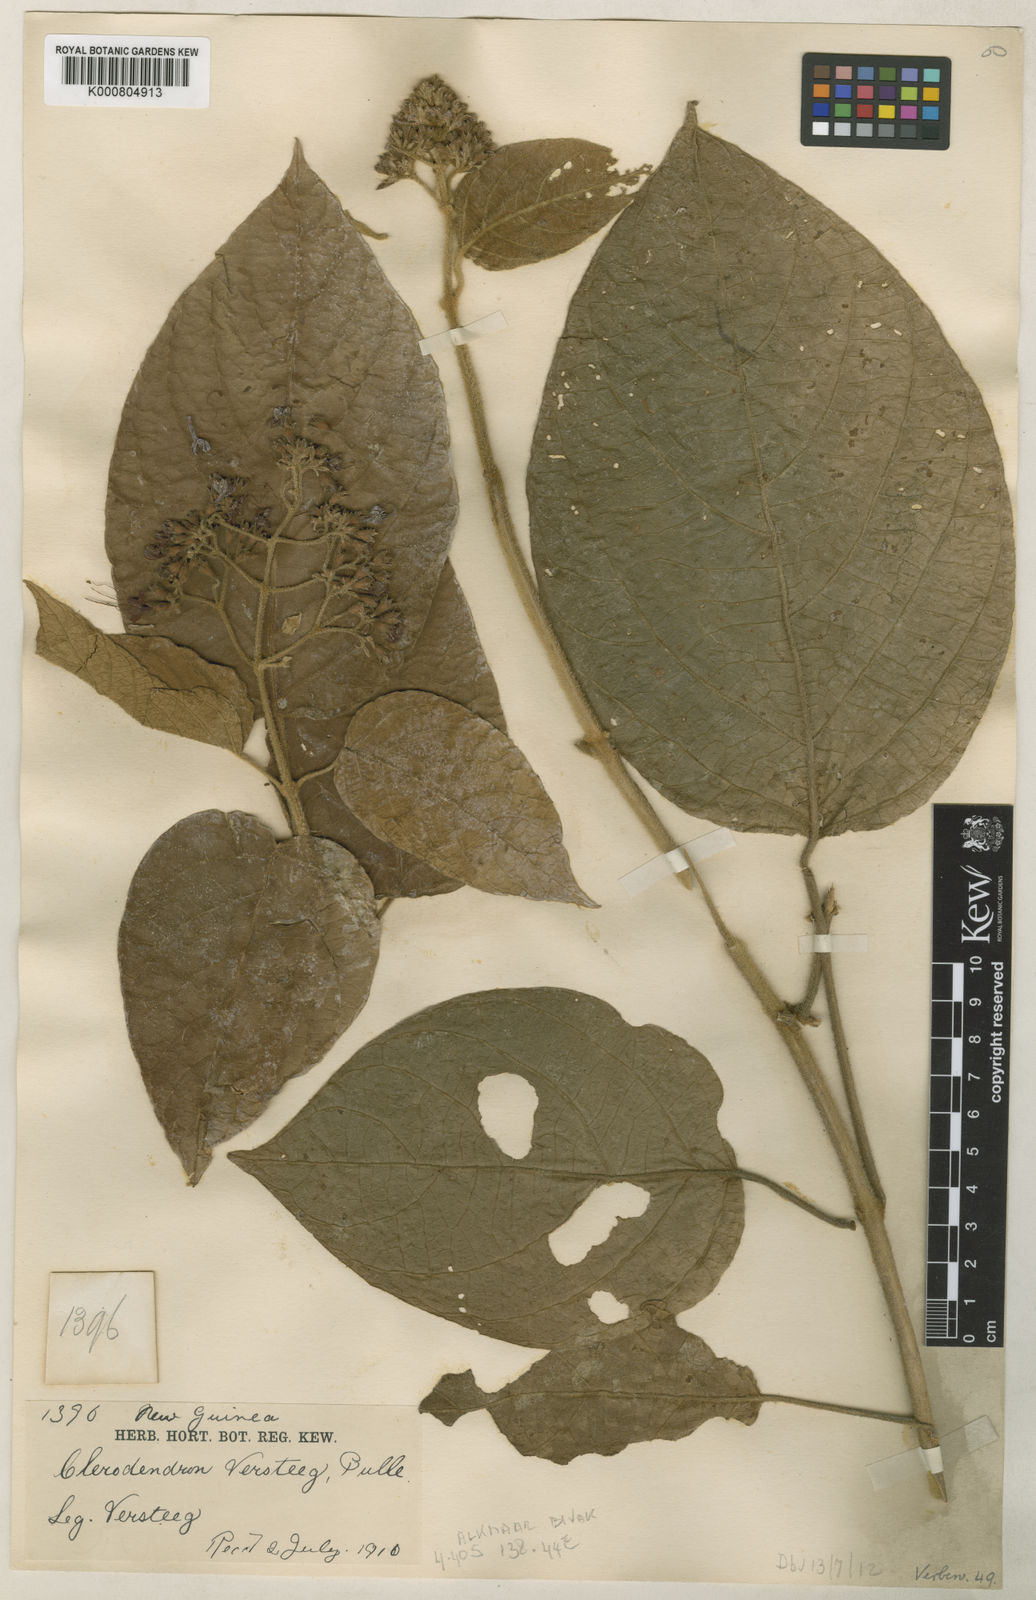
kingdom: Plantae
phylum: Tracheophyta
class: Magnoliopsida
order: Lamiales
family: Lamiaceae
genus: Clerodendrum
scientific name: Clerodendrum tracyanum
